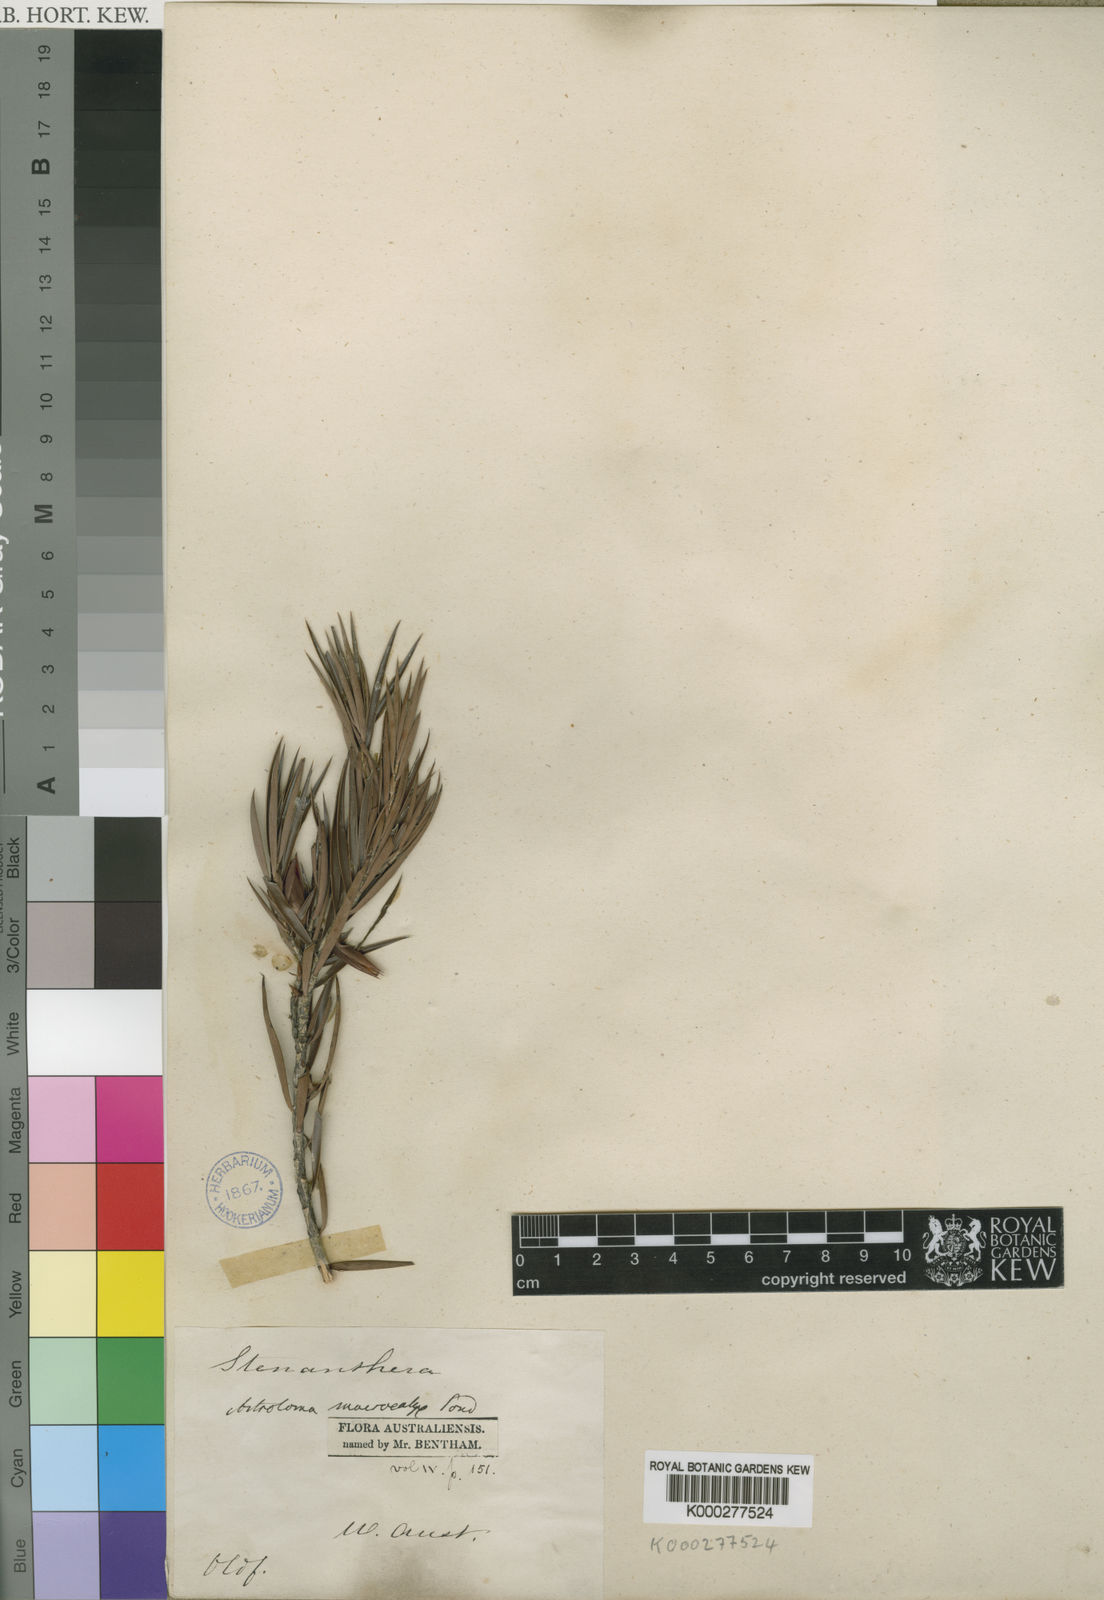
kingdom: Plantae
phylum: Tracheophyta
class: Magnoliopsida
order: Ericales
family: Ericaceae
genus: Styphelia
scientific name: Styphelia macrocalyx
